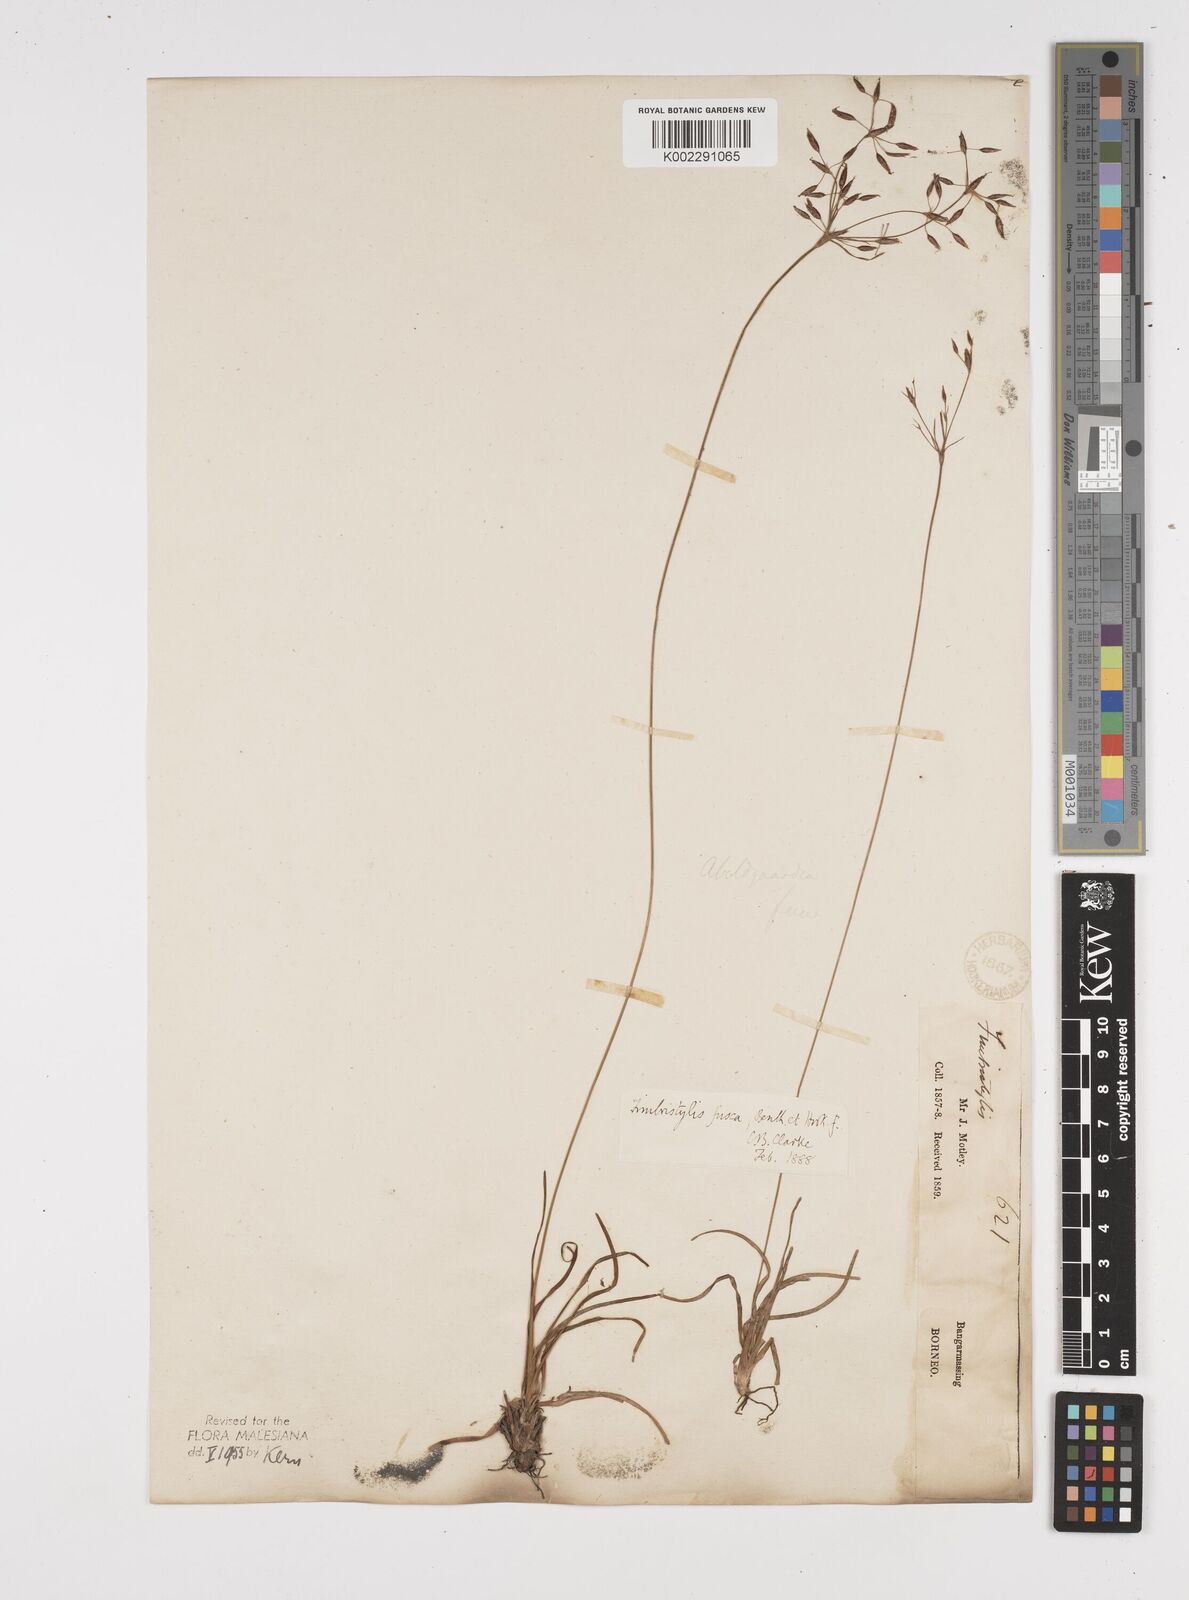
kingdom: Plantae
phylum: Tracheophyta
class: Liliopsida
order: Poales
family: Cyperaceae
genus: Fimbristylis
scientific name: Fimbristylis fusca
